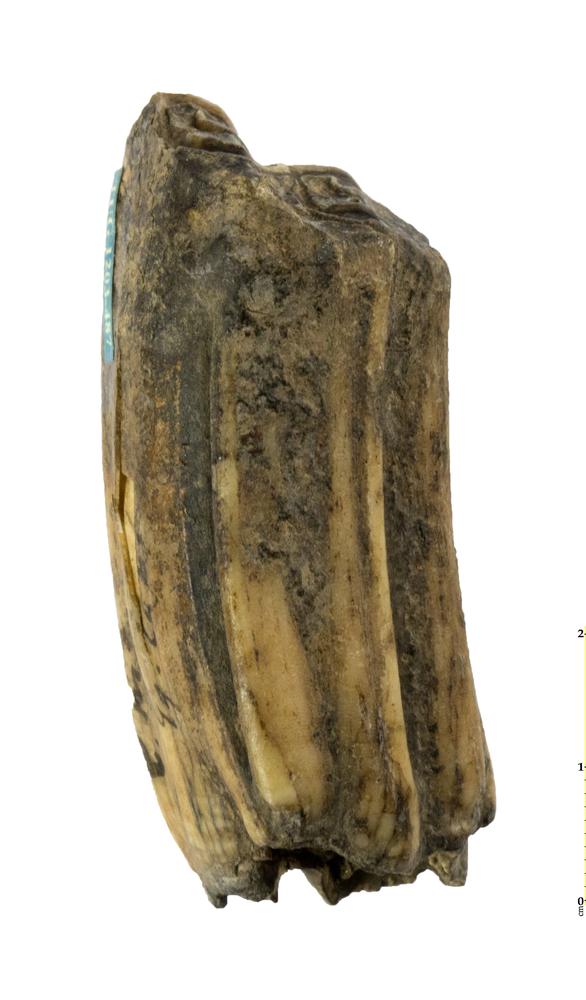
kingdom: Animalia
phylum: Chordata
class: Mammalia
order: Perissodactyla
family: Equidae
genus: Equus
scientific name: Equus caballus
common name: Horse
